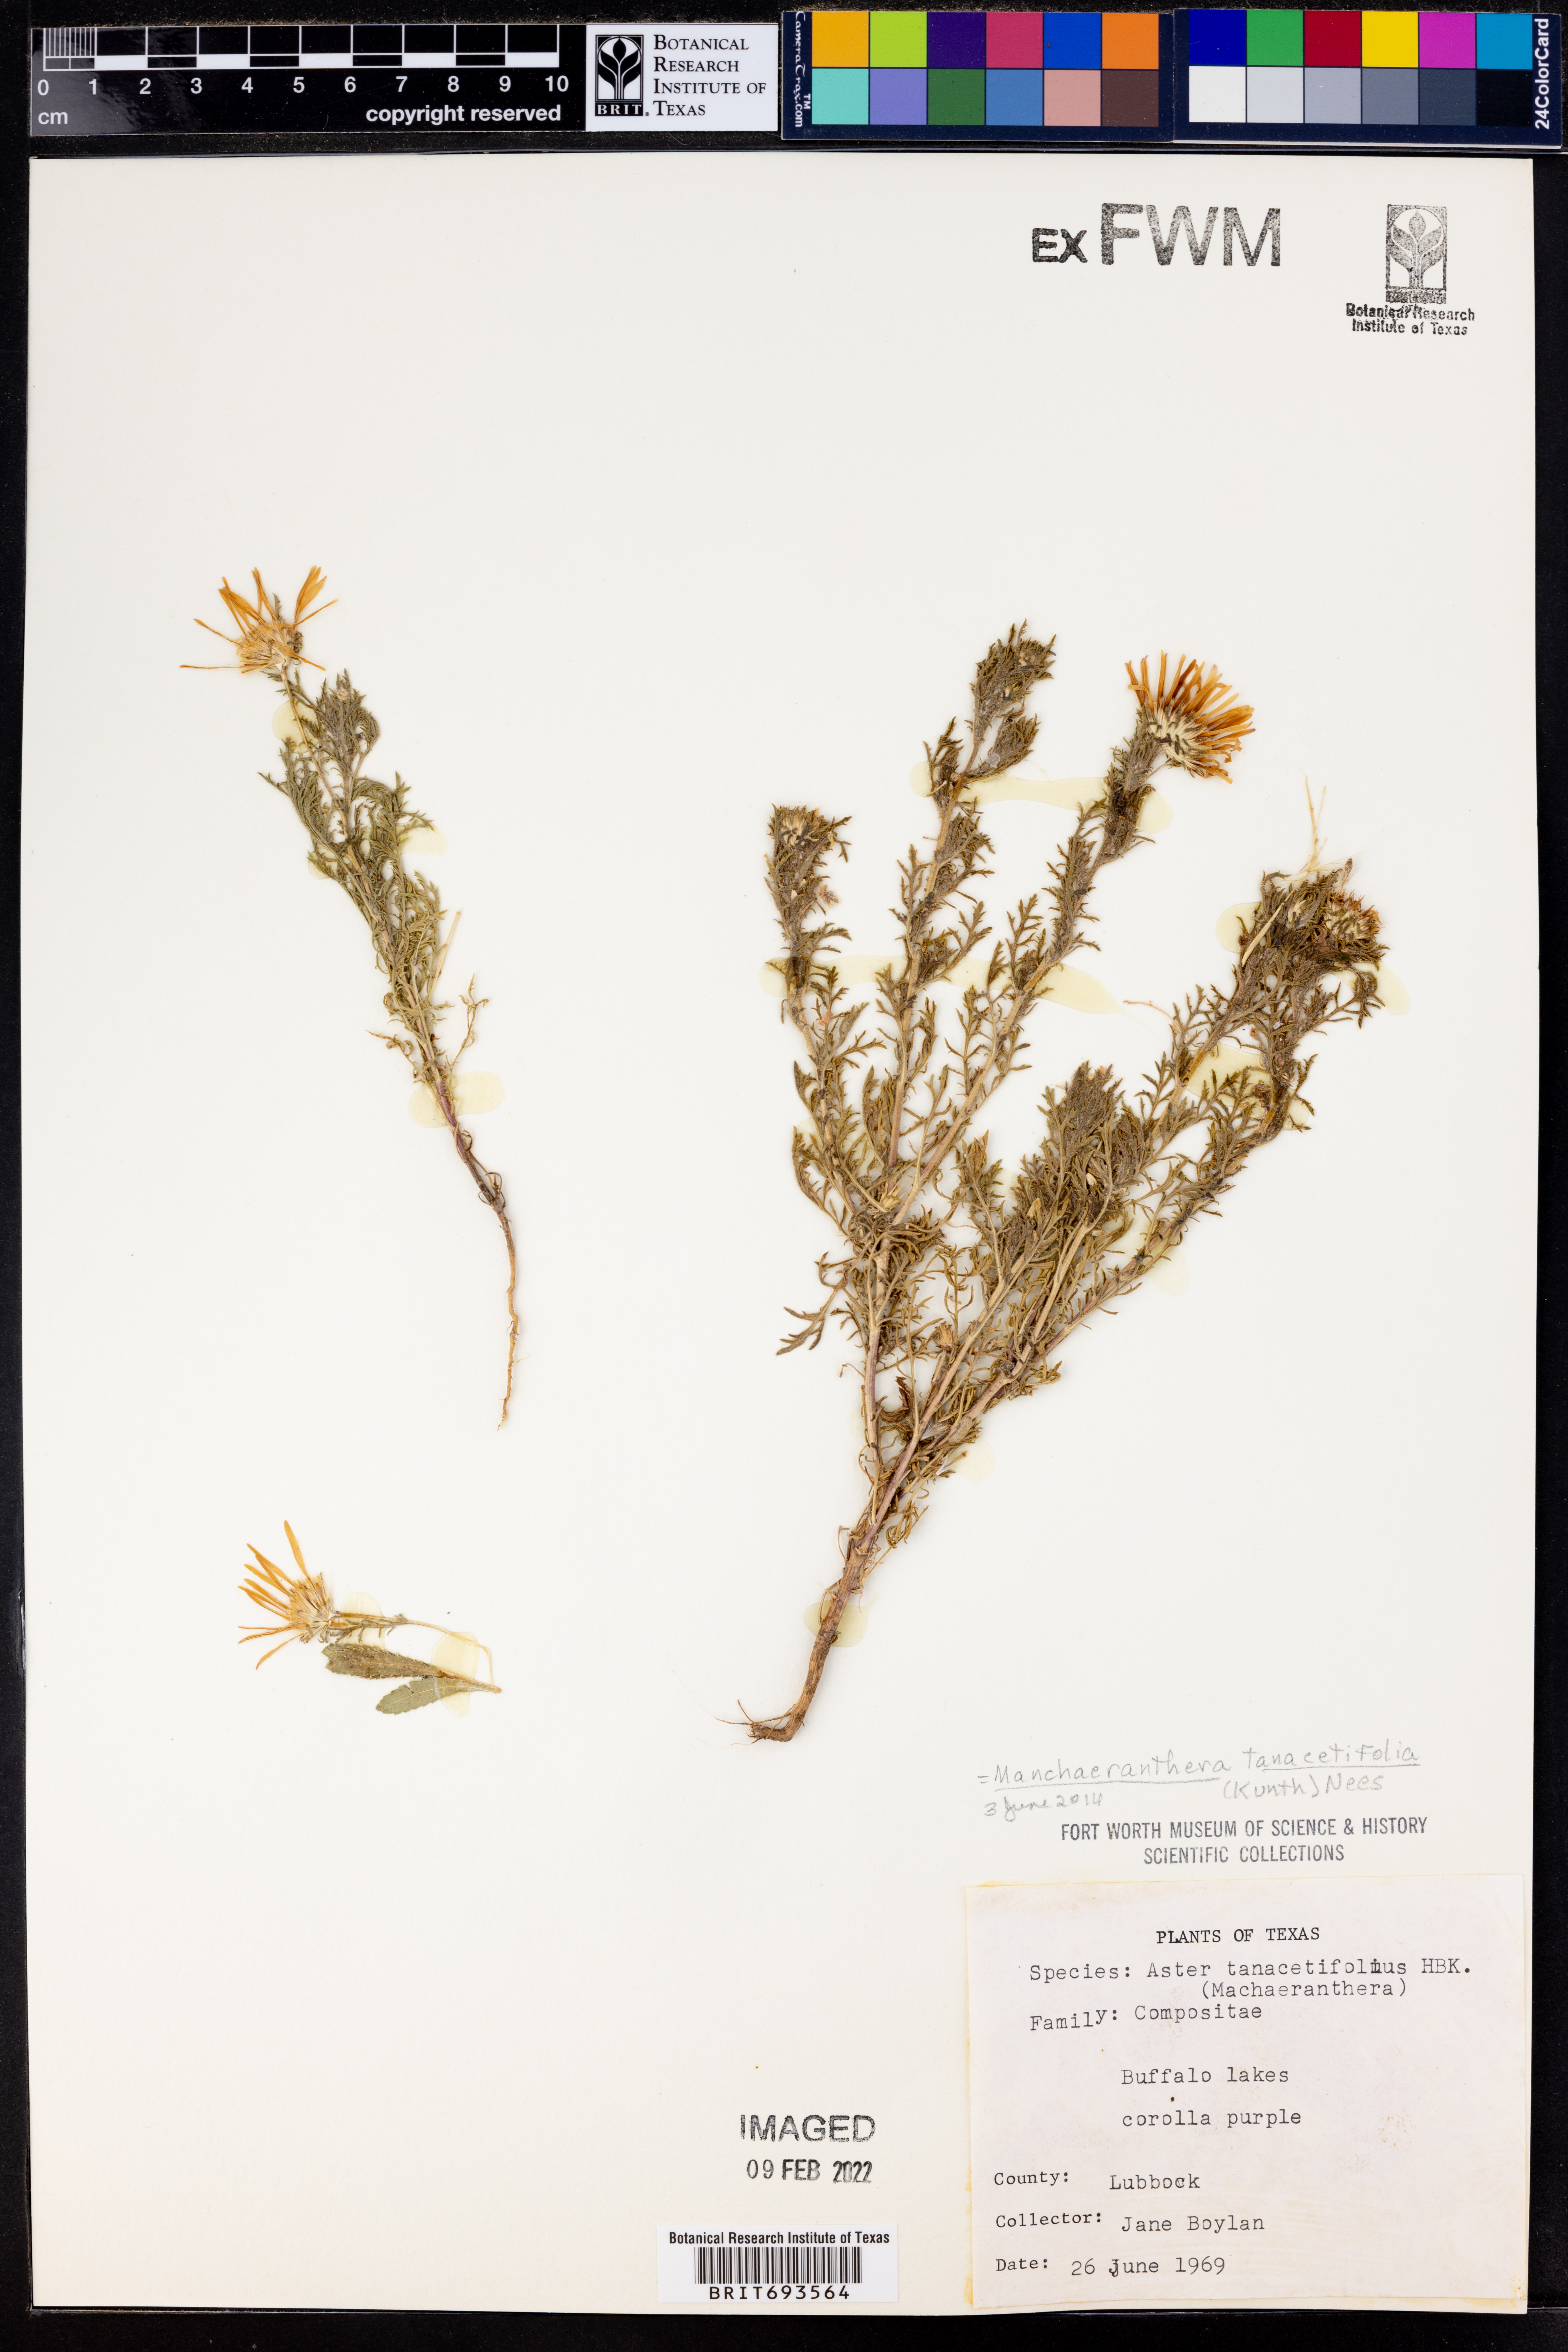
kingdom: Plantae
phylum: Tracheophyta
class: Magnoliopsida
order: Asterales
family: Asteraceae
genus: Machaeranthera
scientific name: Machaeranthera tanacetifolia
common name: Tansy-aster
